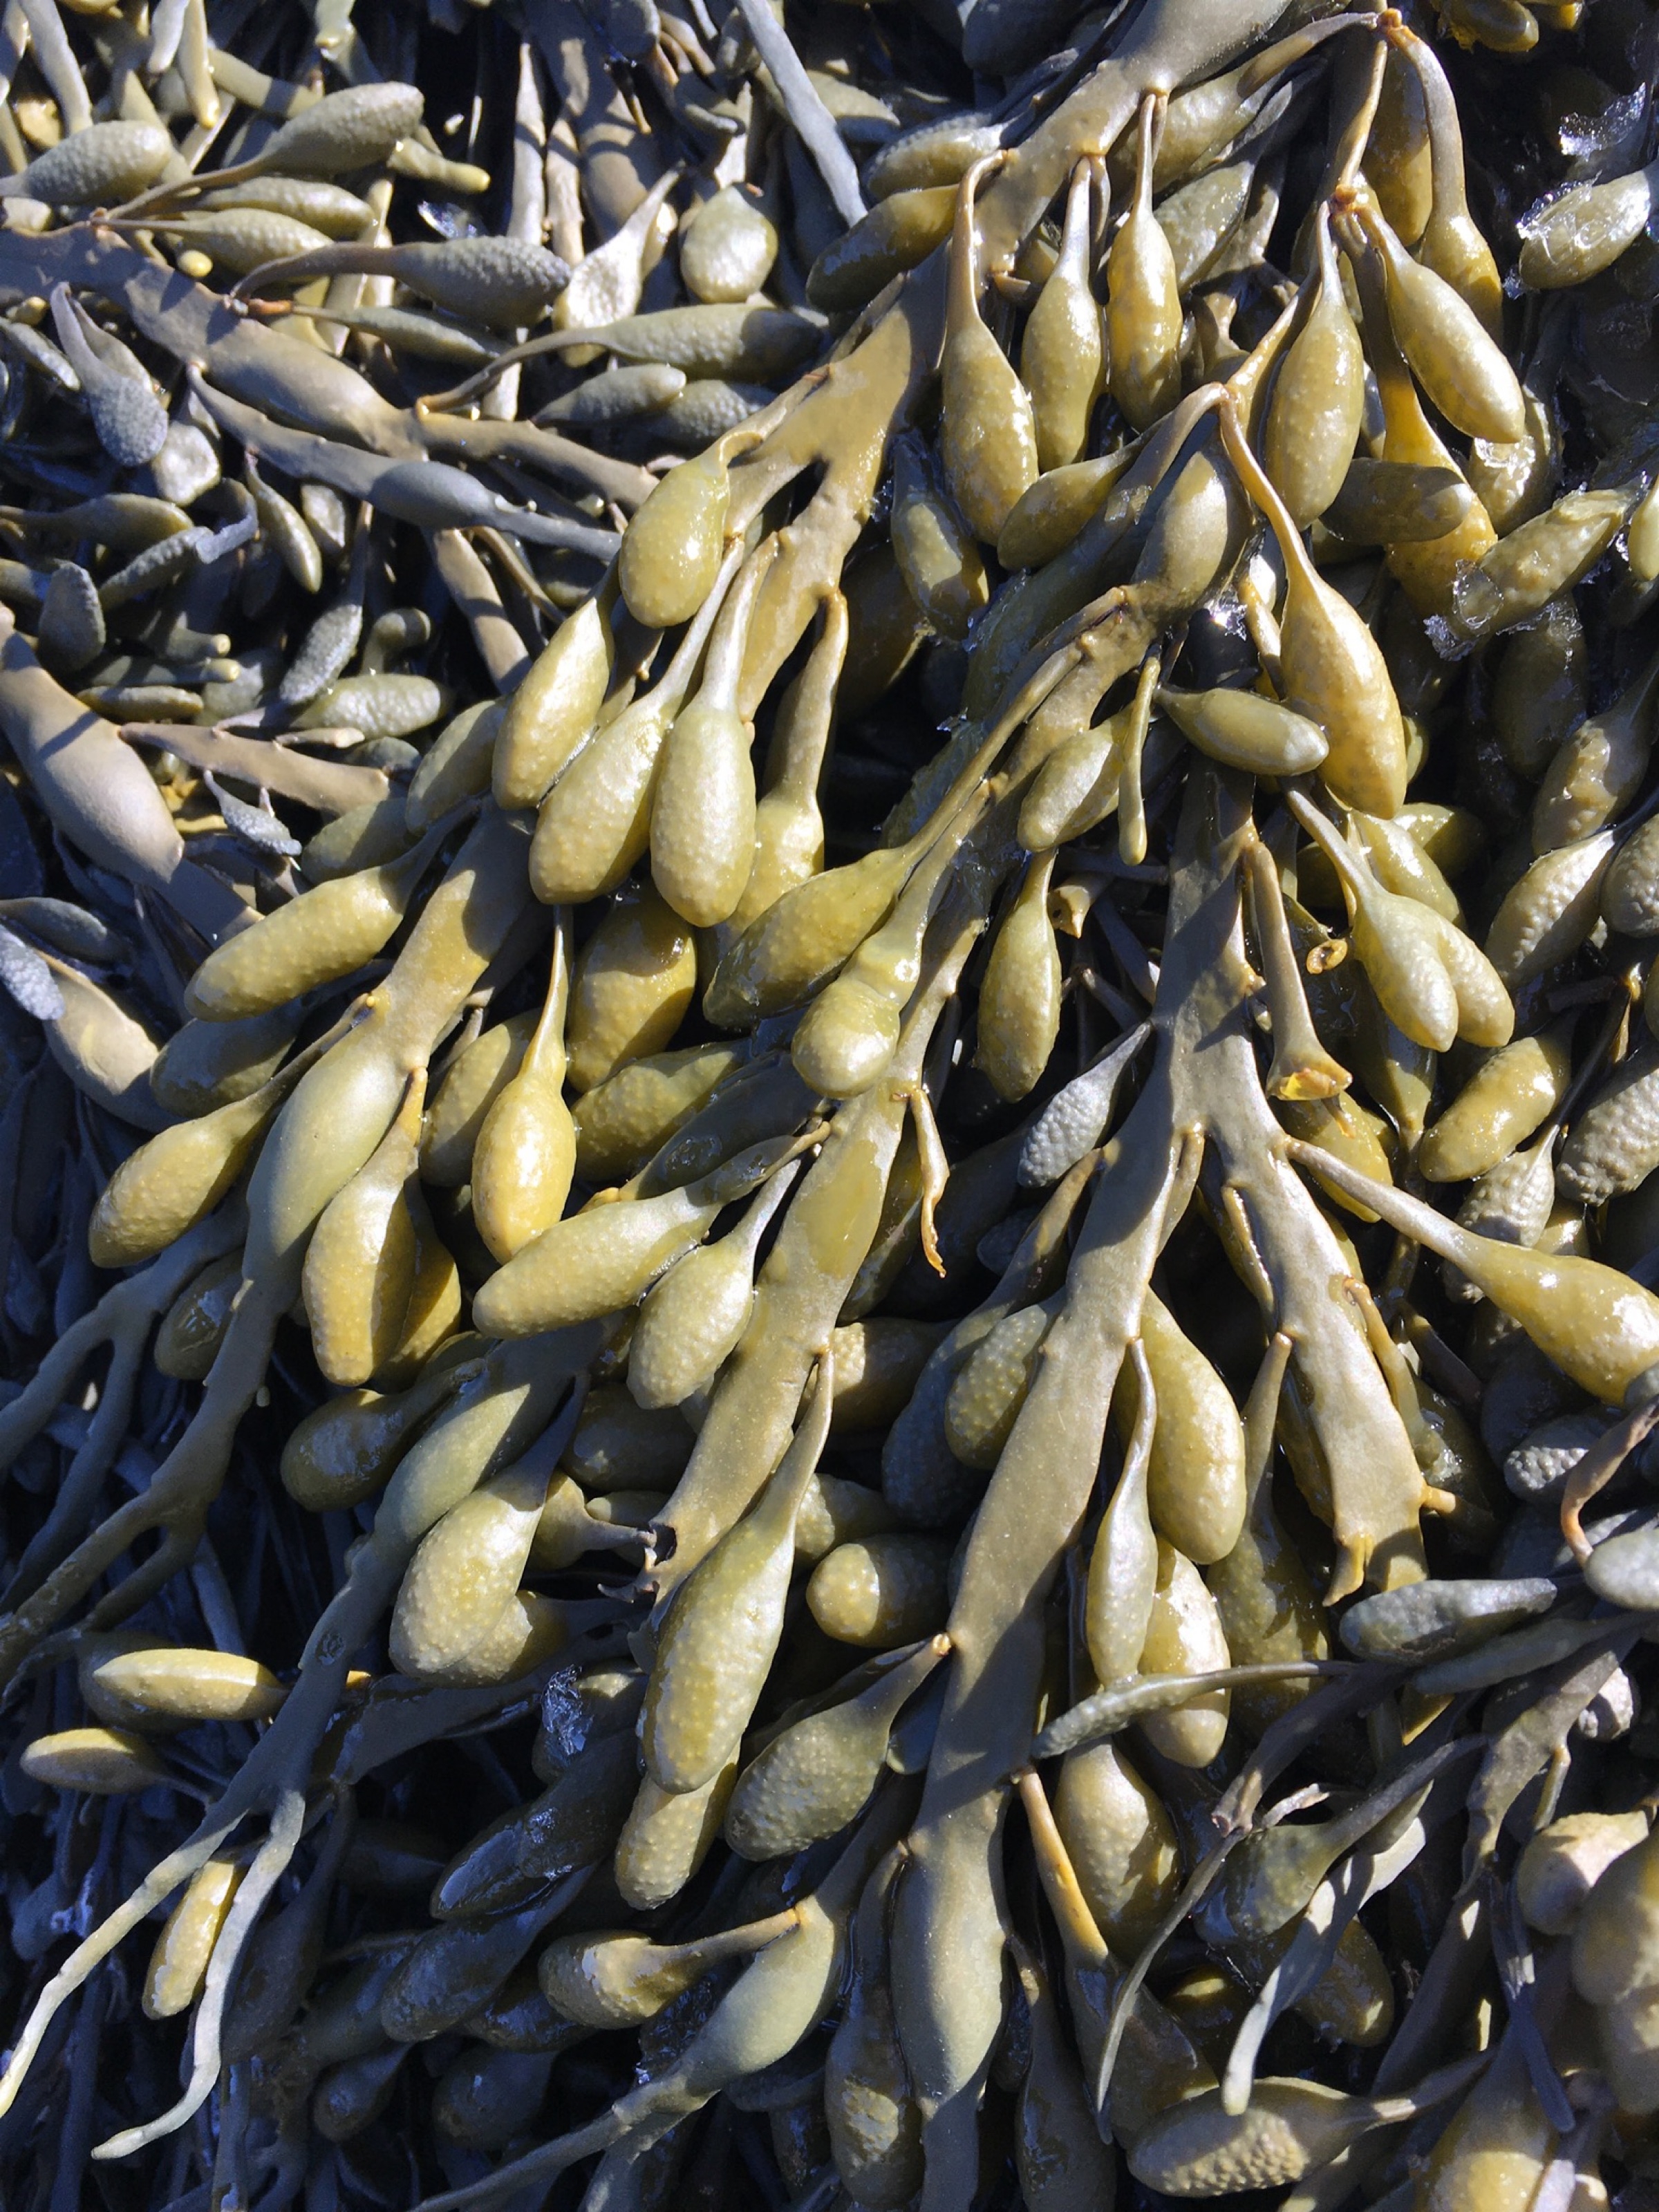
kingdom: Chromista
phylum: Ochrophyta
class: Phaeophyceae
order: Fucales
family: Fucaceae
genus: Ascophyllum
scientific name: Ascophyllum nodosum
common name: Rockweed
